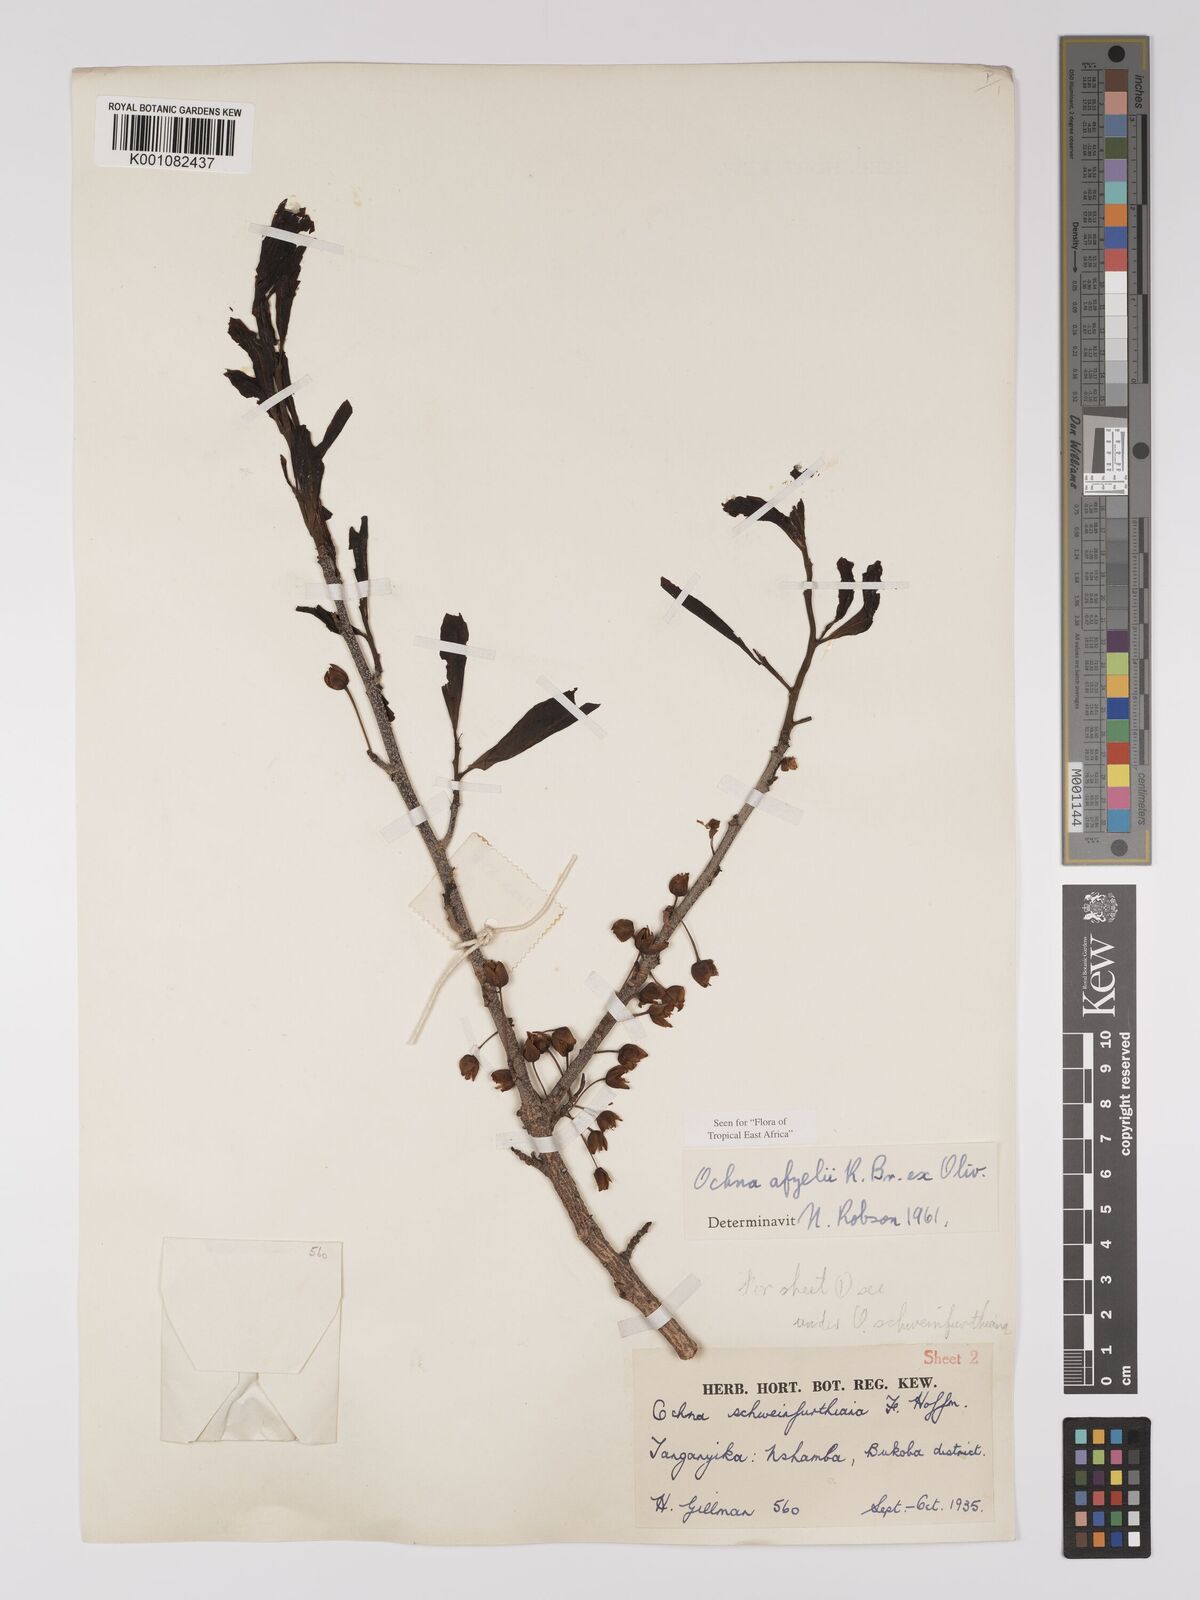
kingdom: Plantae
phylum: Tracheophyta
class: Magnoliopsida
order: Malpighiales
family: Ochnaceae
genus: Ochna
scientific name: Ochna afzelii
